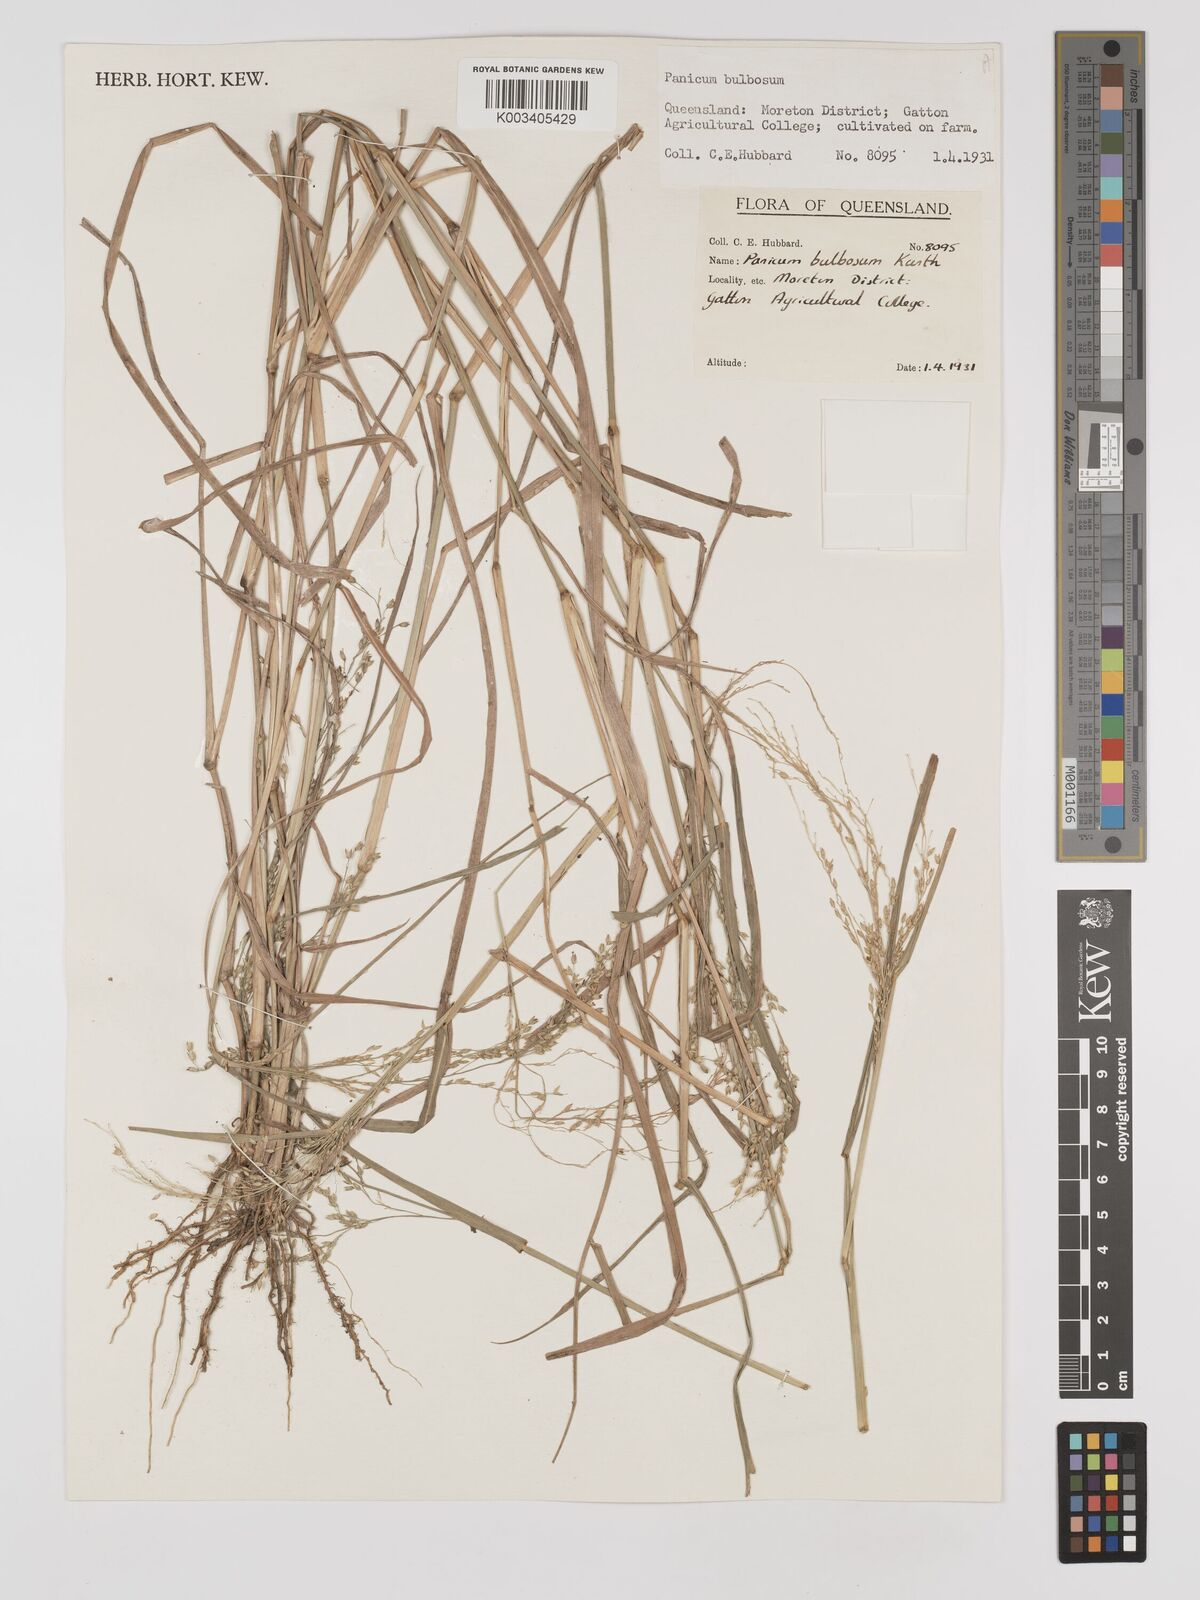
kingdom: Plantae
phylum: Tracheophyta
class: Liliopsida
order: Poales
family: Poaceae
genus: Zuloagaea
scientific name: Zuloagaea bulbosa
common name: Canyon panic grass
